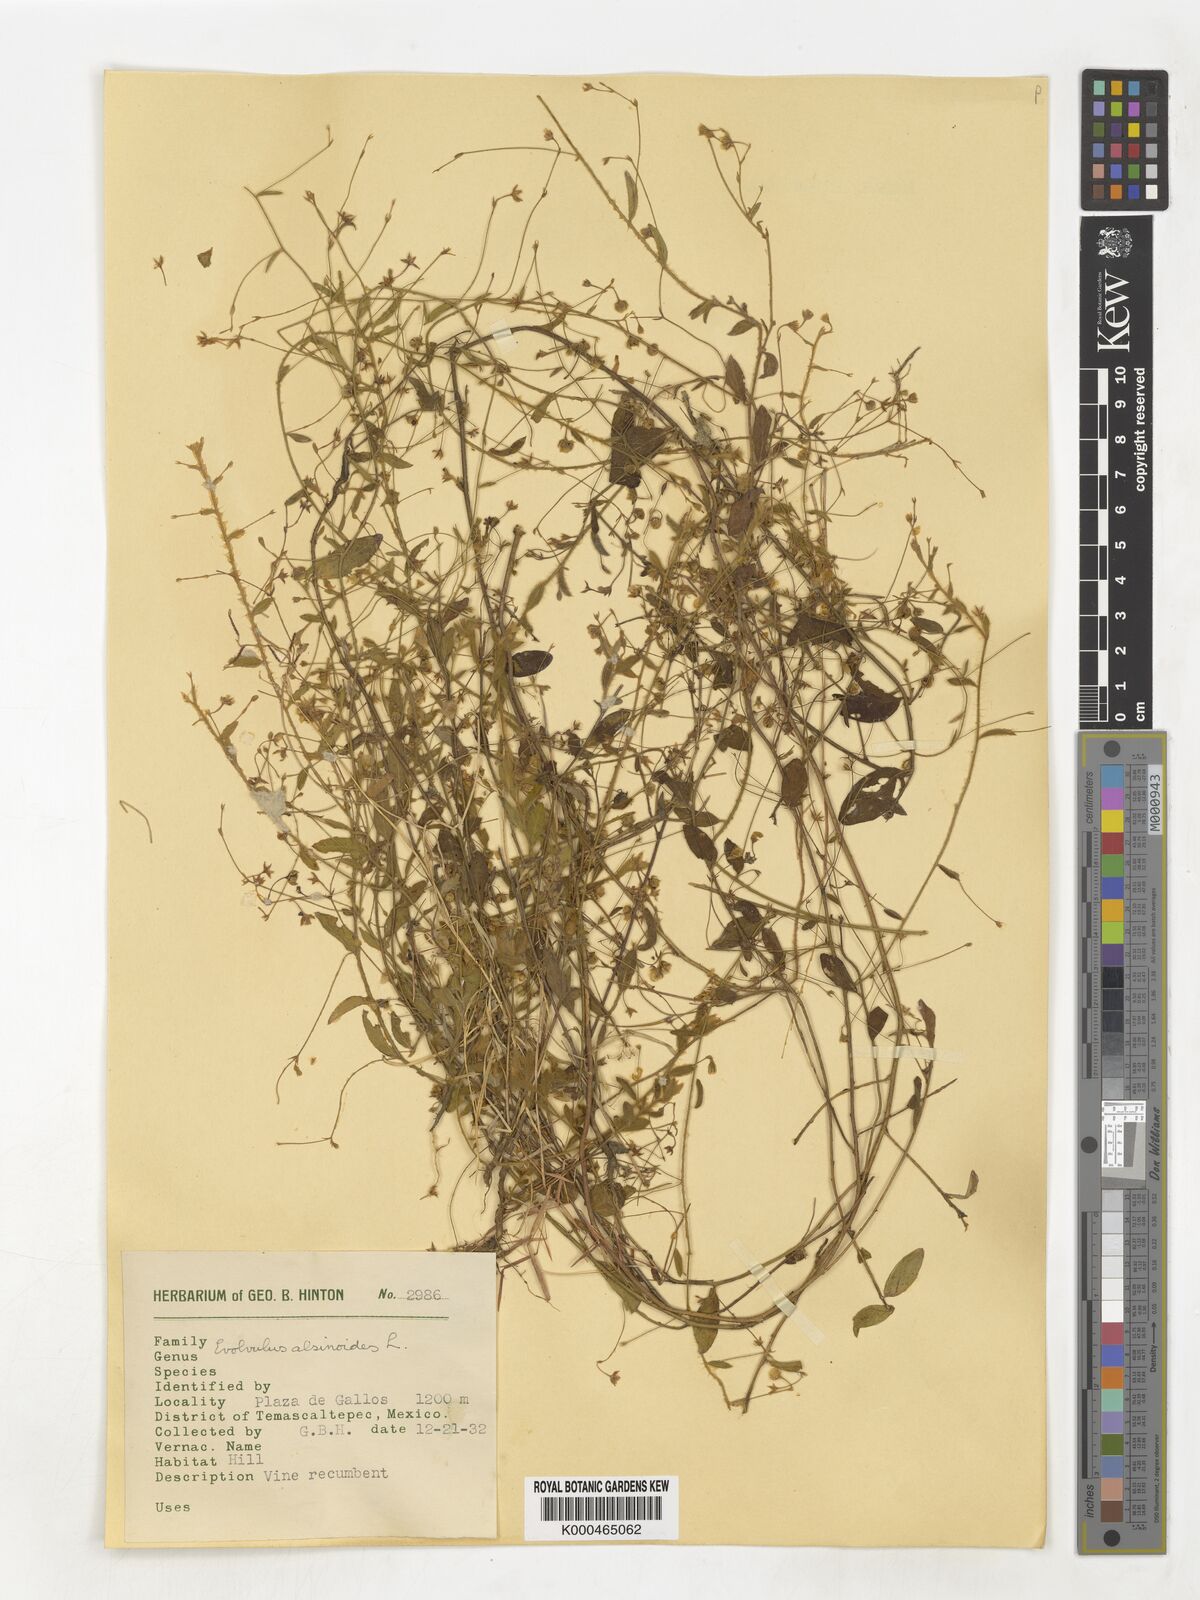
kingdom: Plantae
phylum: Tracheophyta
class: Magnoliopsida
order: Solanales
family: Convolvulaceae
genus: Evolvulus
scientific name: Evolvulus alsinoides
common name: Slender dwarf morning-glory
